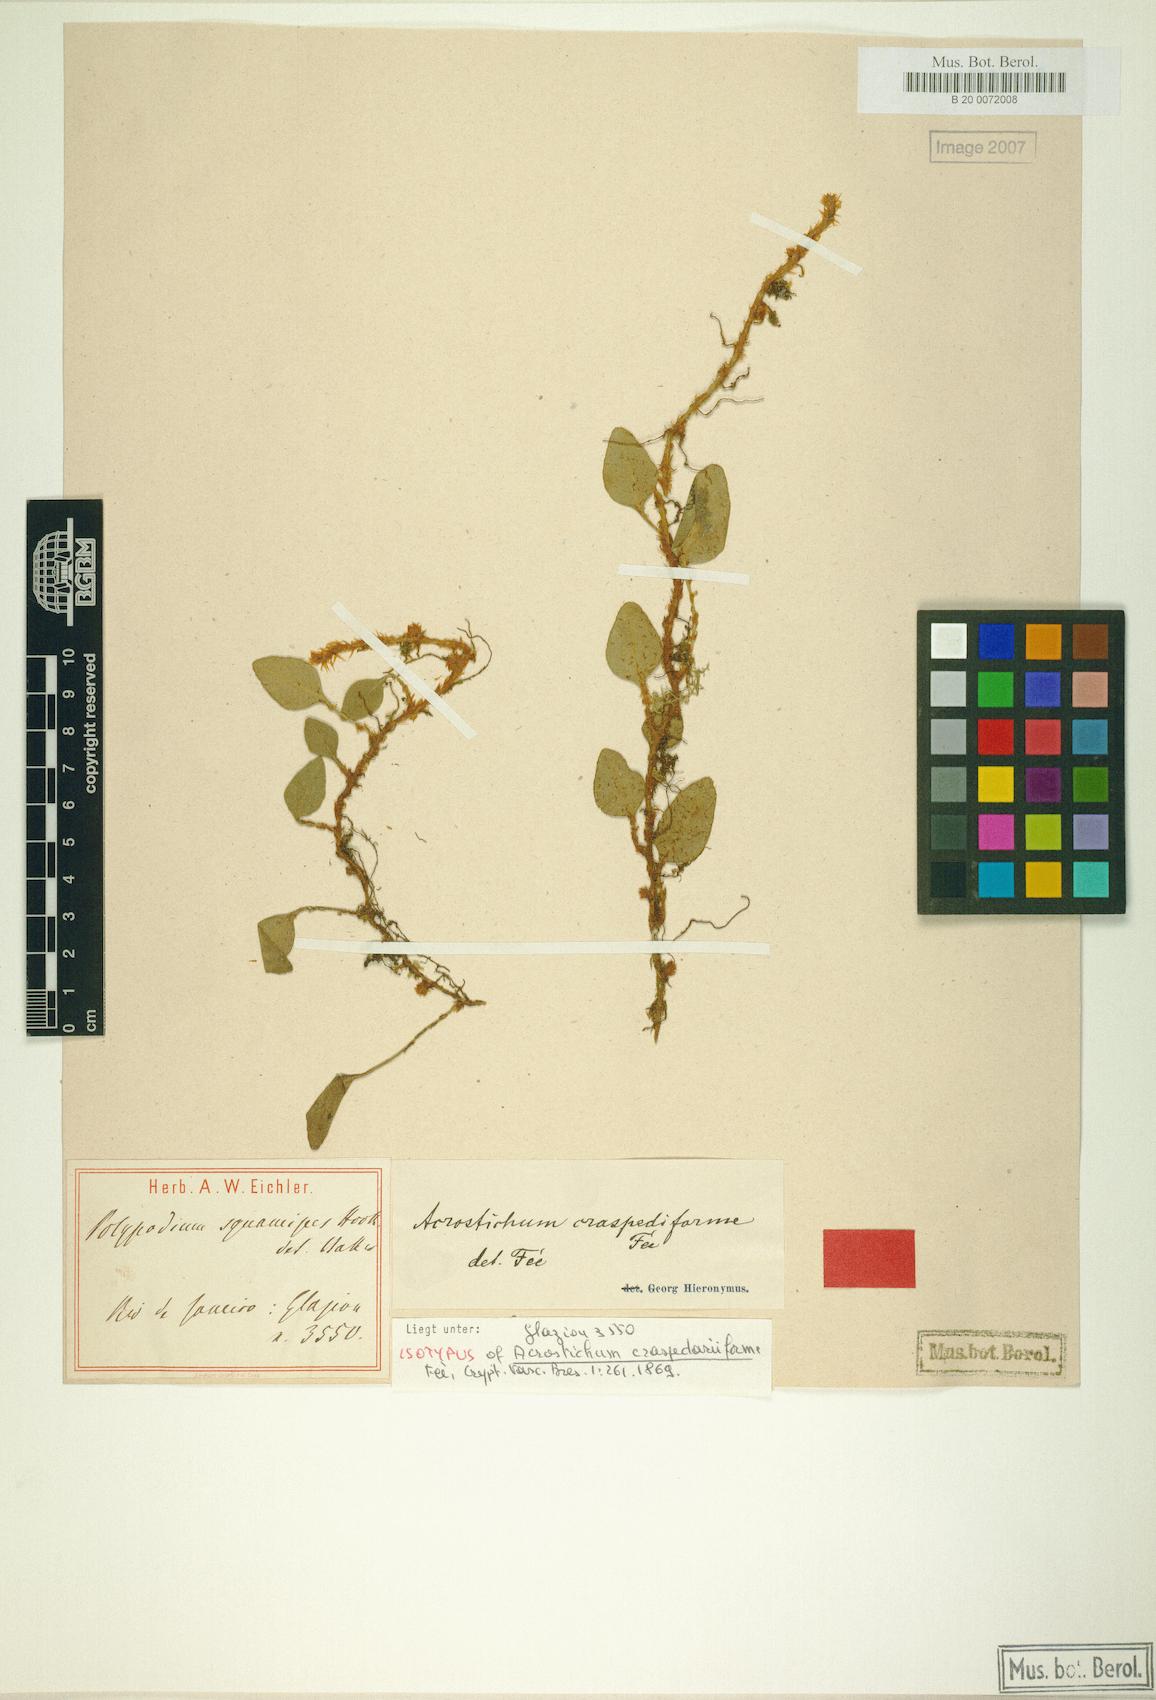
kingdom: Plantae
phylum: Tracheophyta
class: Polypodiopsida
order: Polypodiales
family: Dryopteridaceae
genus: Elaphoglossum
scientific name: Elaphoglossum squamipes
